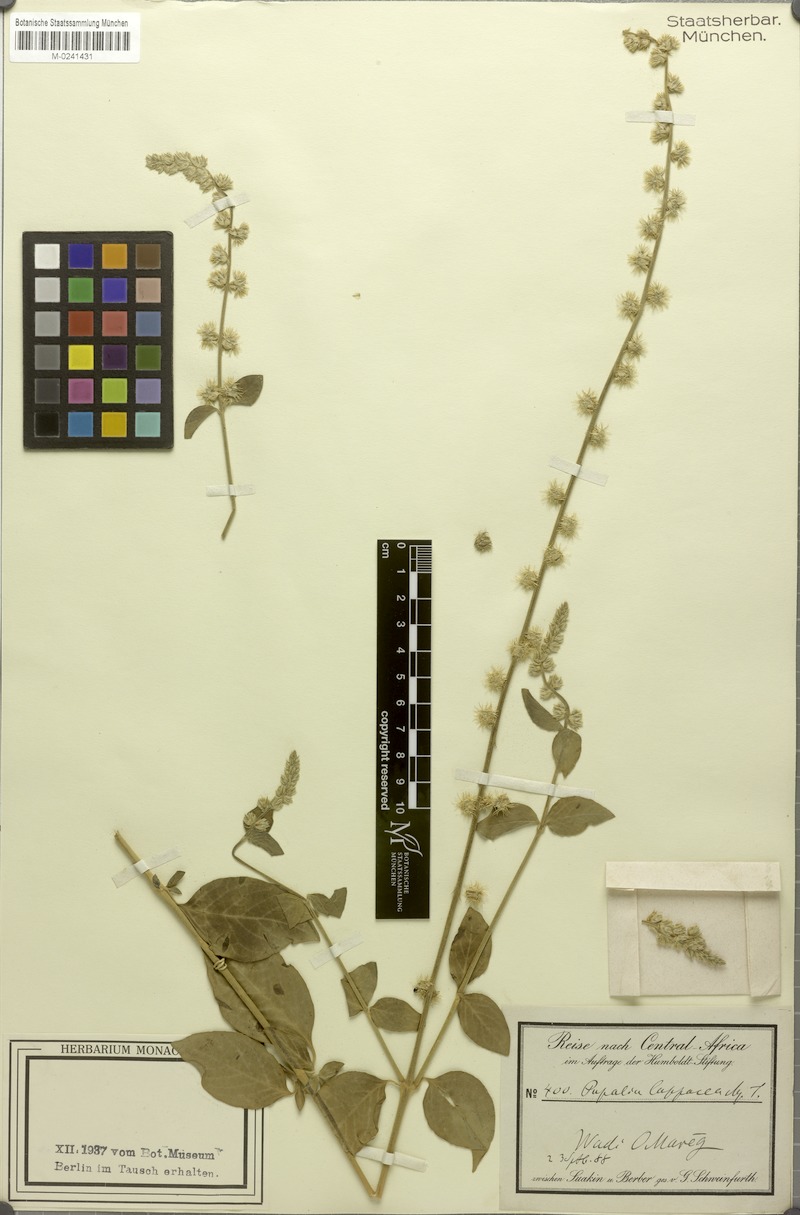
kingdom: Plantae
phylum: Tracheophyta
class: Magnoliopsida
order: Caryophyllales
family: Amaranthaceae
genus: Pupalia
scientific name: Pupalia lappacea
